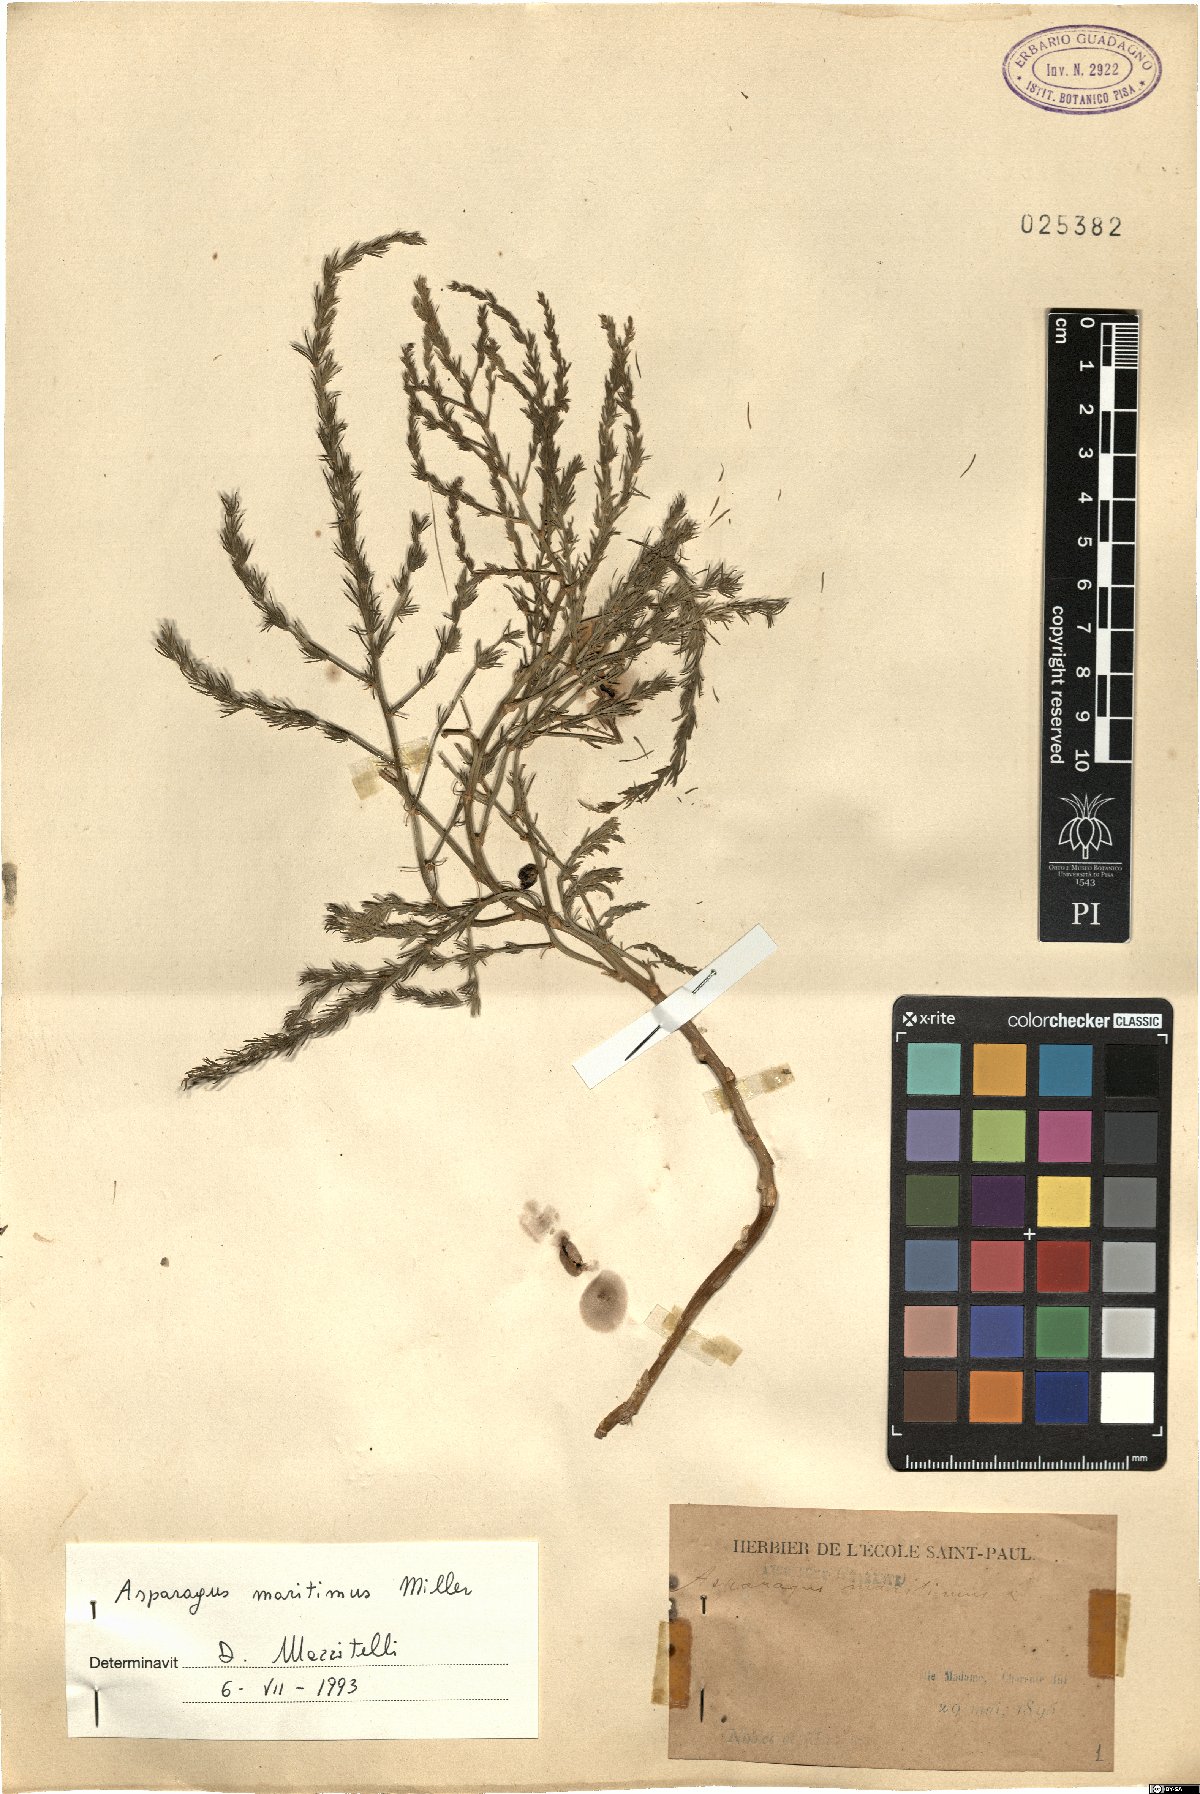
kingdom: Plantae
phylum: Tracheophyta
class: Liliopsida
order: Asparagales
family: Asparagaceae
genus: Asparagus
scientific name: Asparagus maritimus
